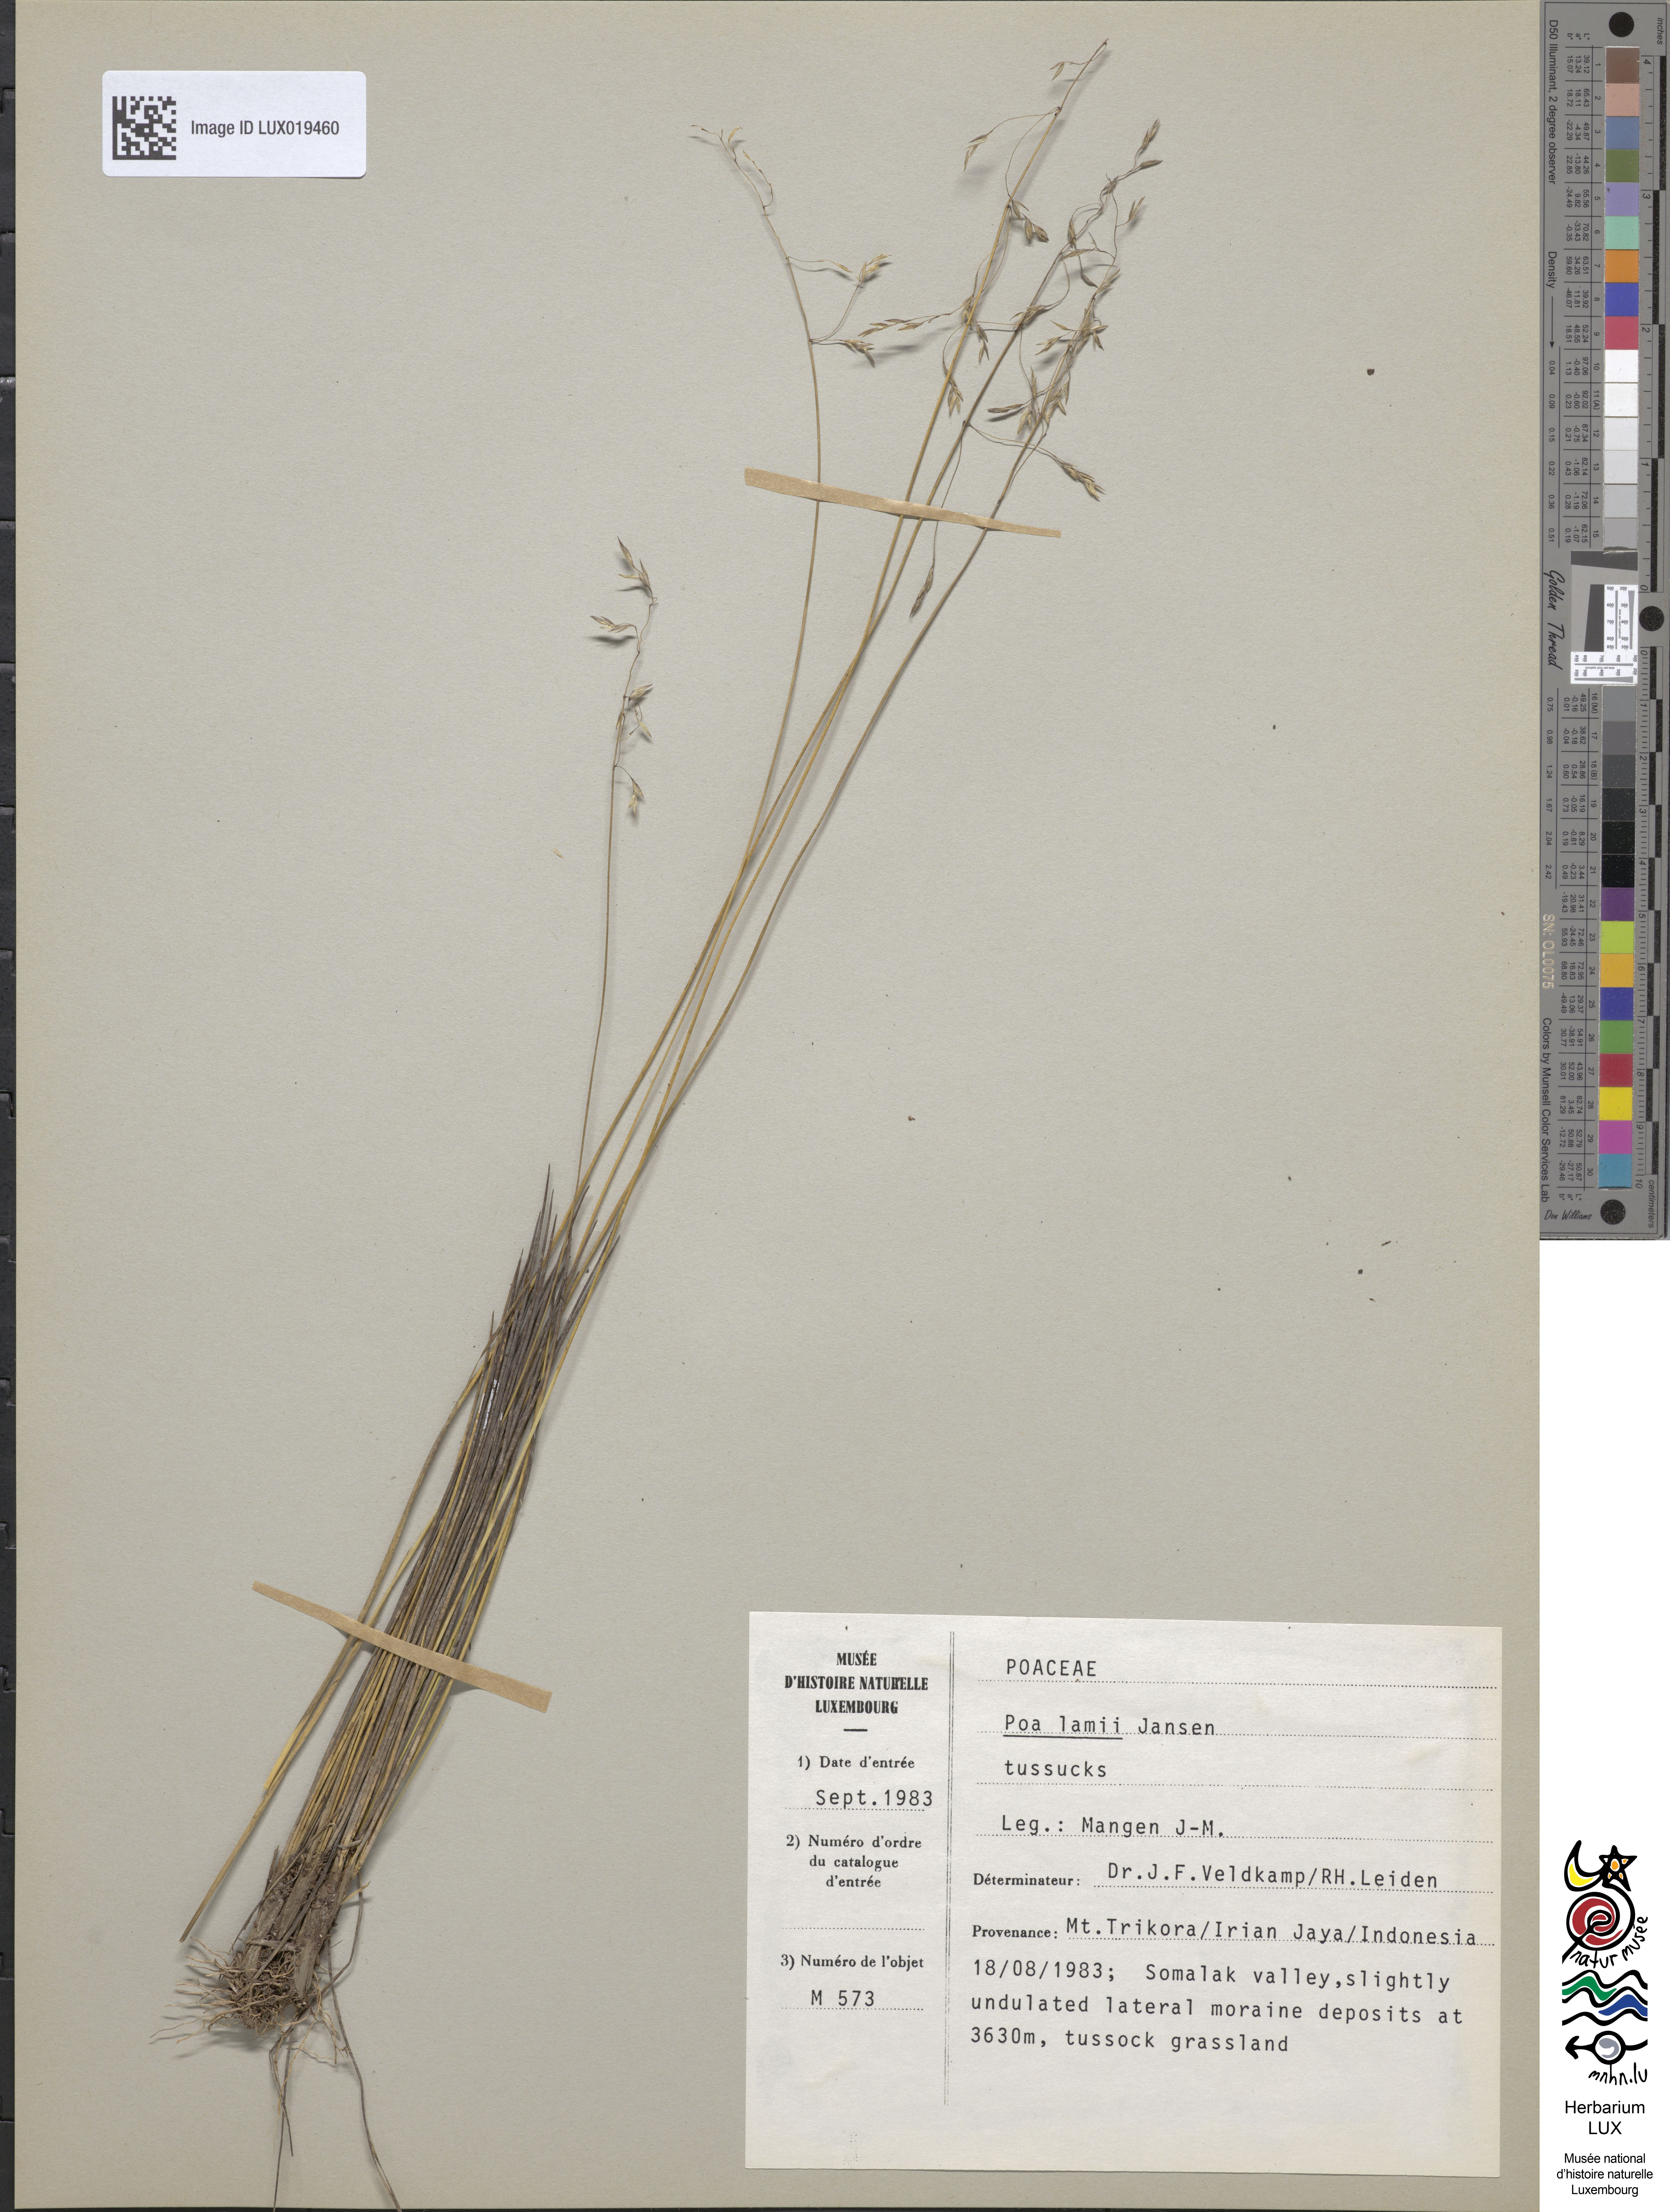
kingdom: Plantae
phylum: Tracheophyta
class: Liliopsida
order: Poales
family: Poaceae
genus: Poa
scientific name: Poa lamii
